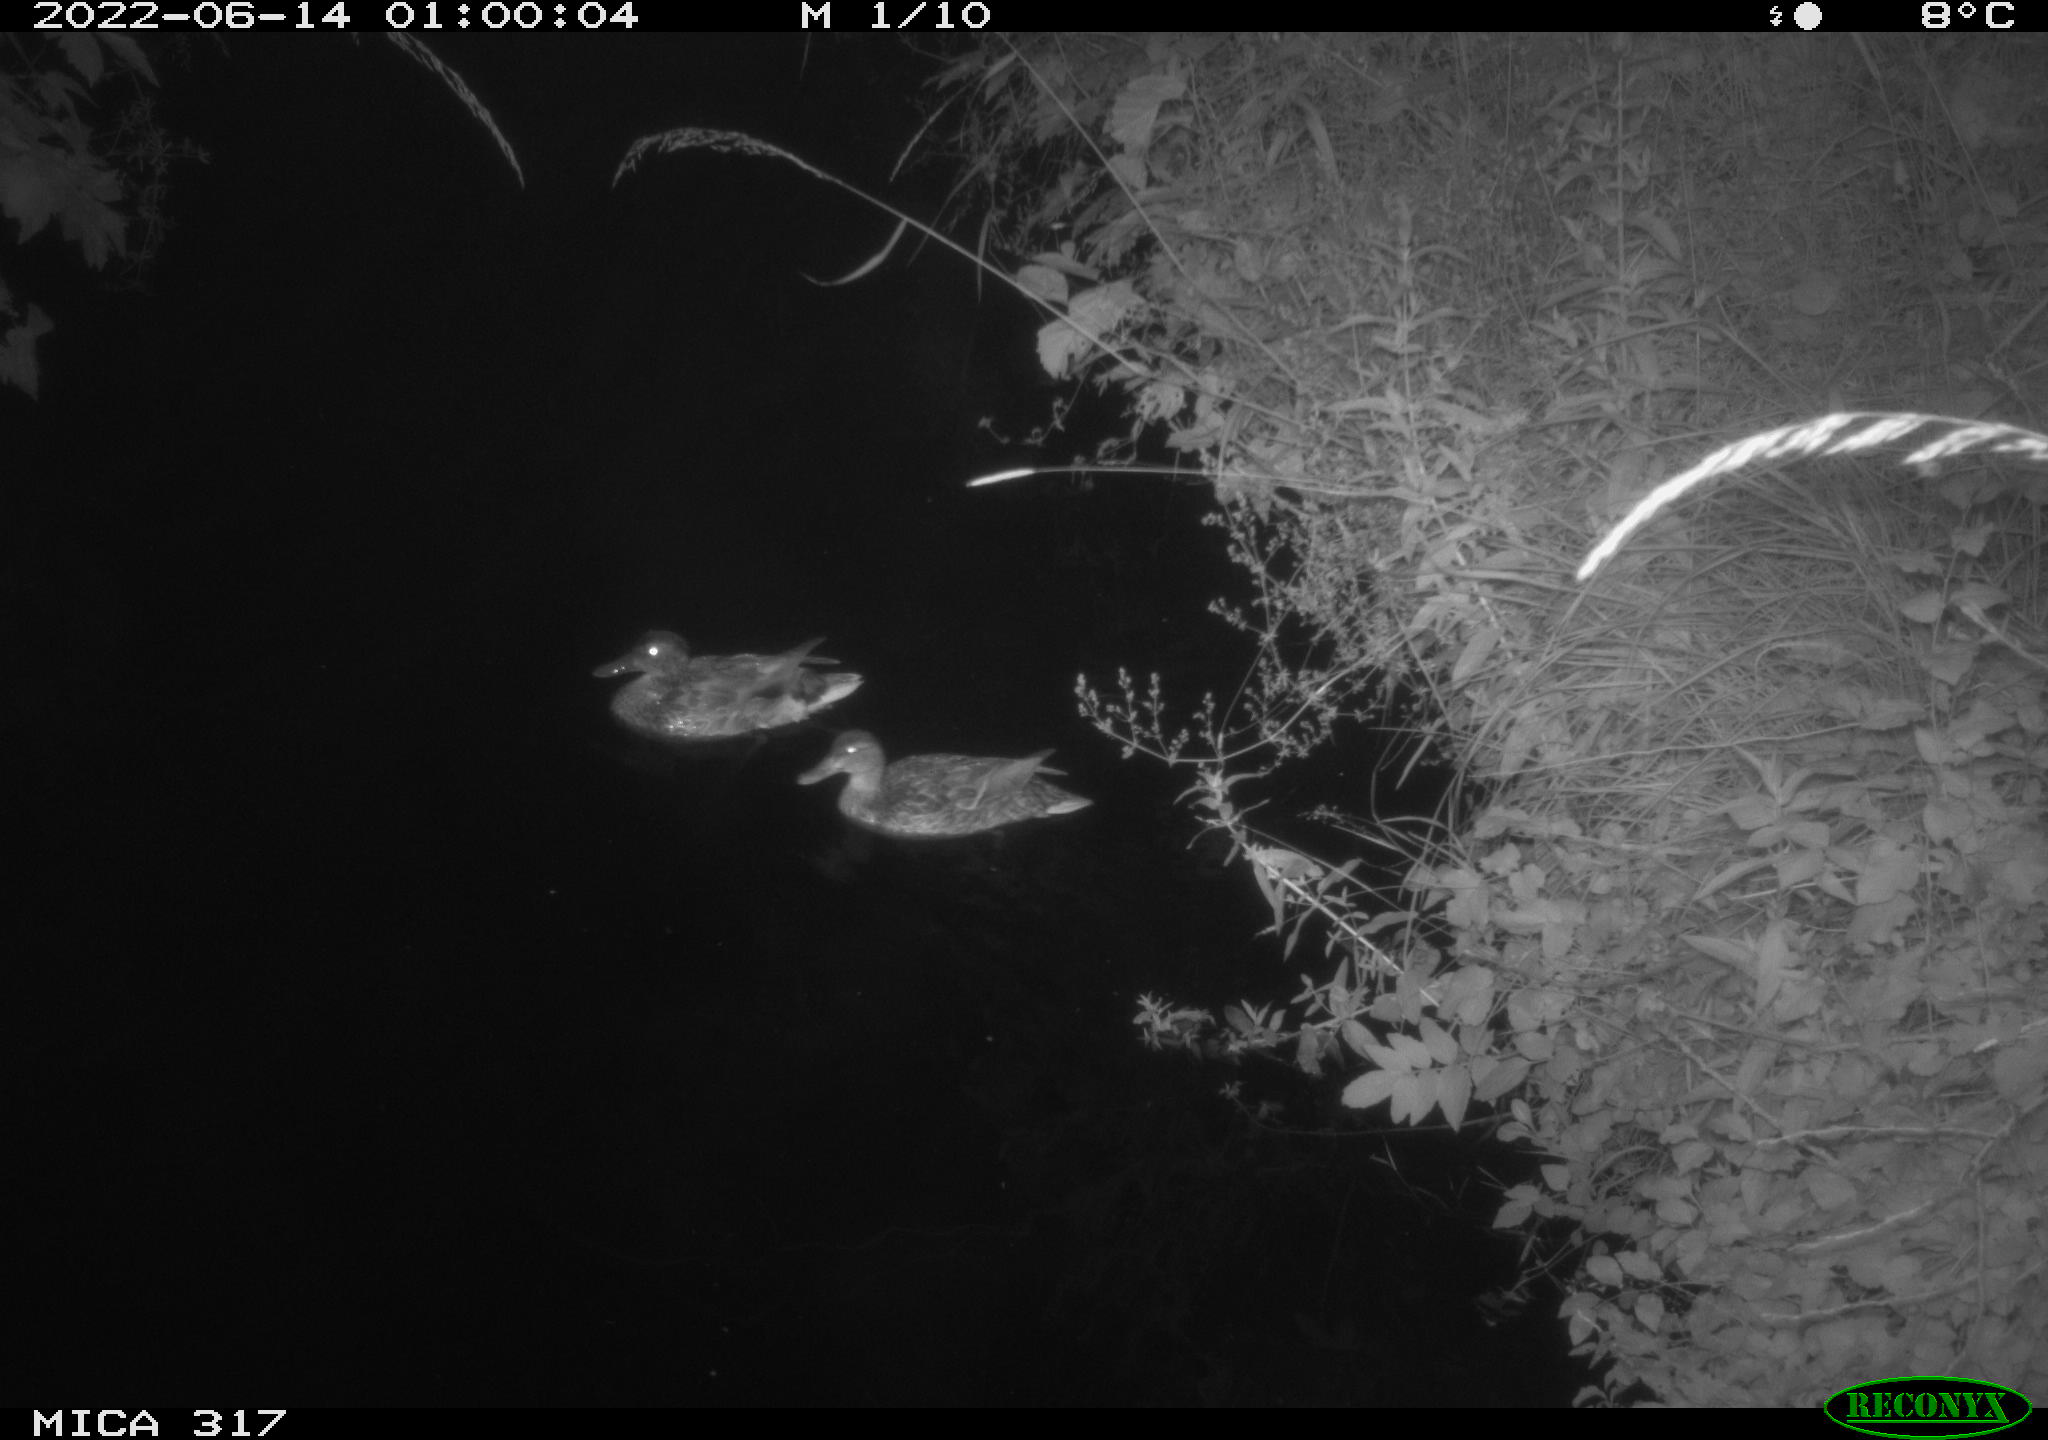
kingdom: Animalia
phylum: Chordata
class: Aves
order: Anseriformes
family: Anatidae
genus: Anas
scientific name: Anas
